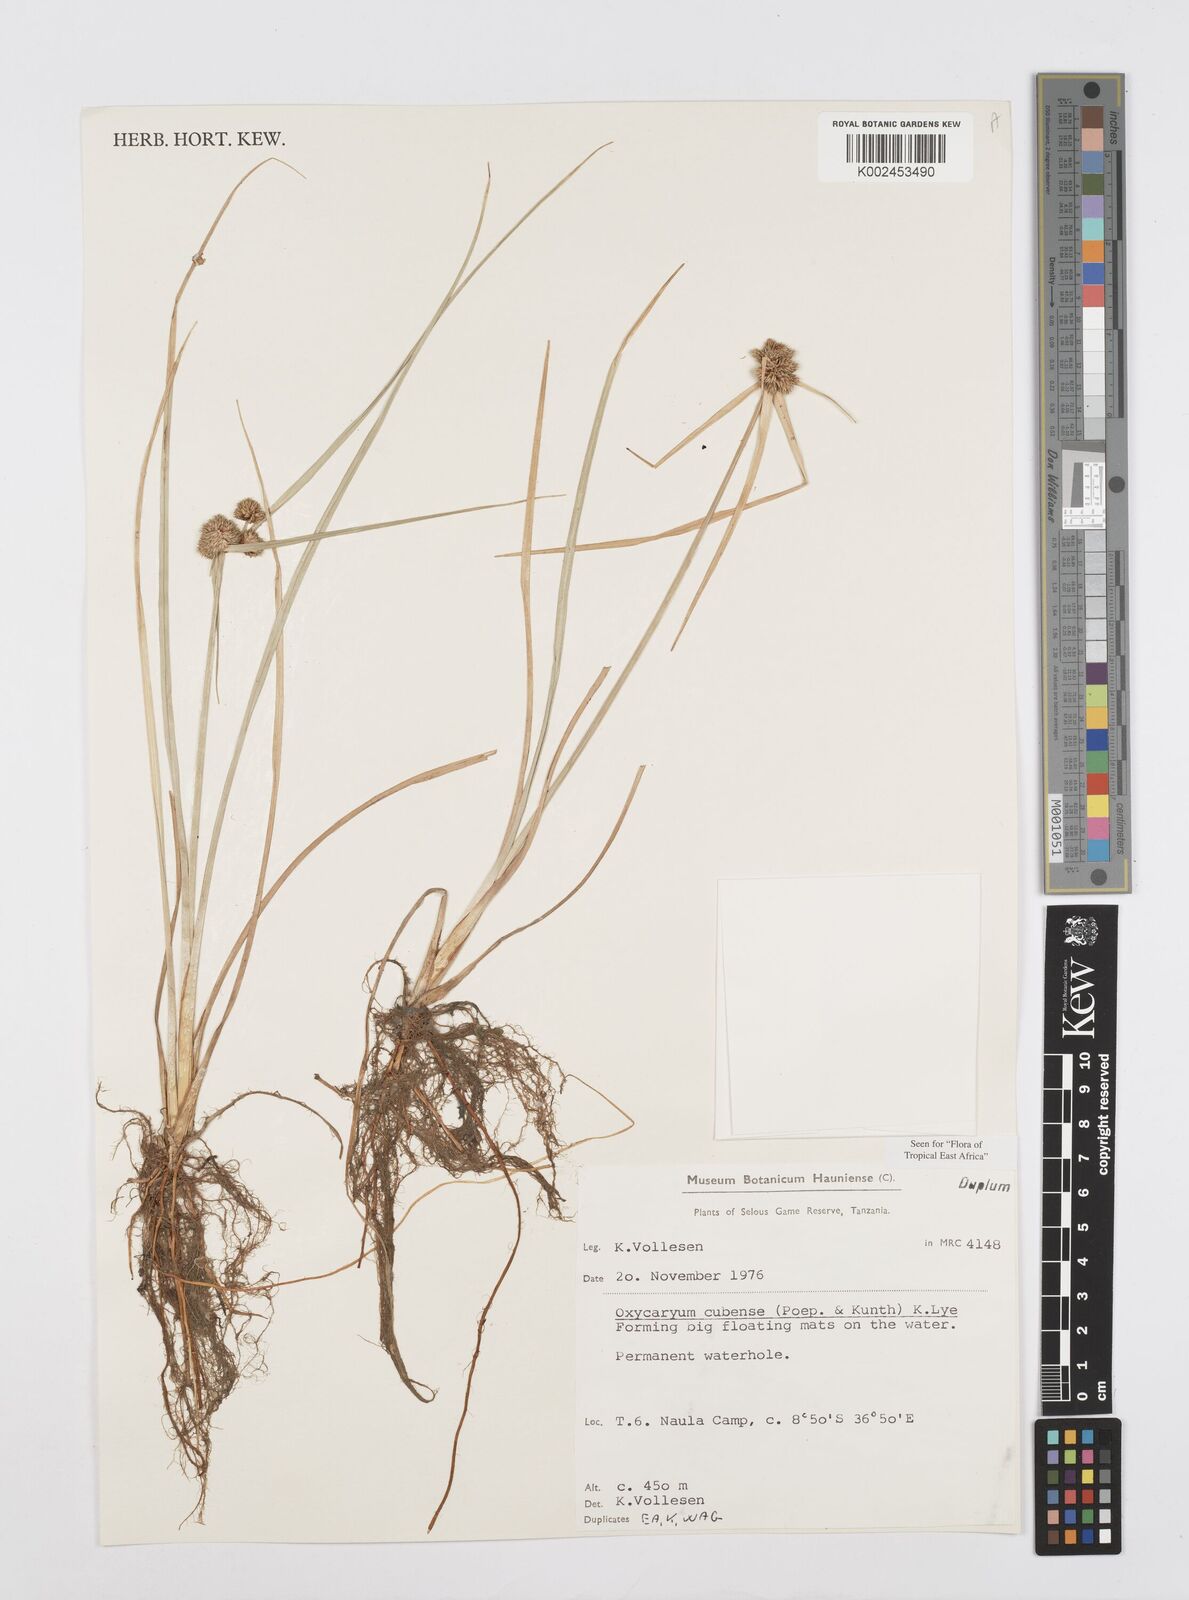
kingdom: Plantae
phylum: Tracheophyta
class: Liliopsida
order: Poales
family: Cyperaceae
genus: Cyperus
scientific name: Cyperus elegans
